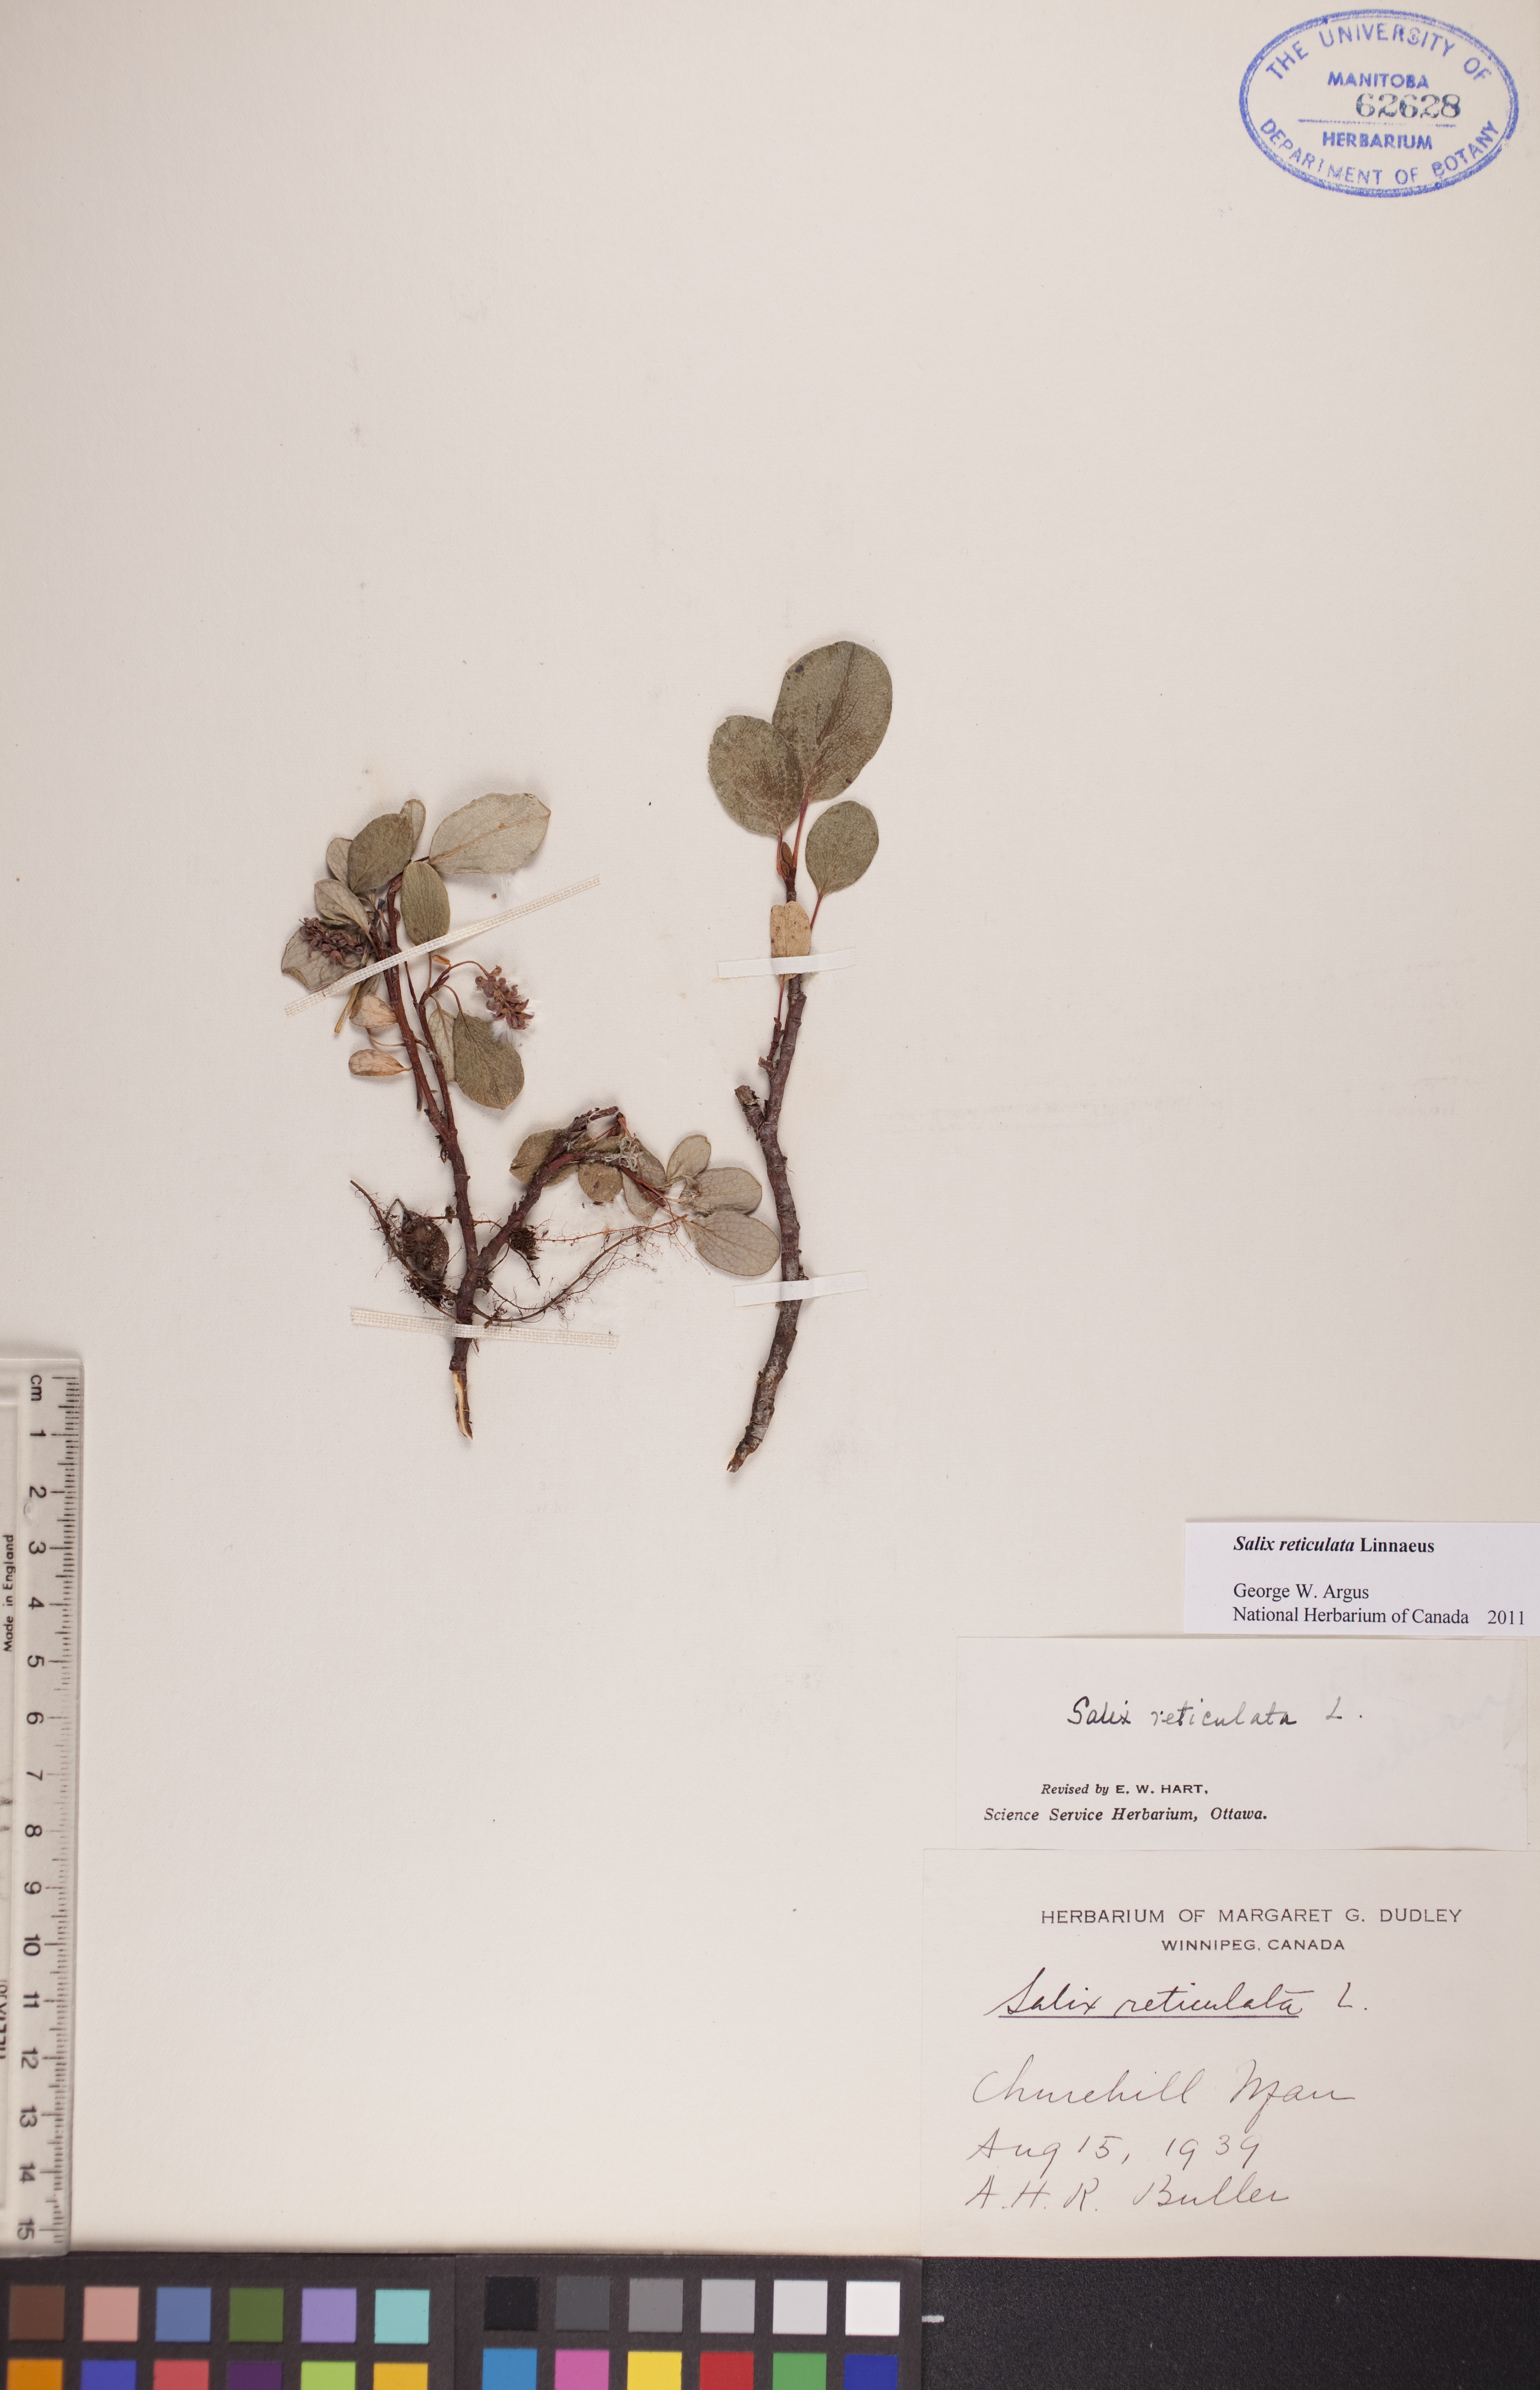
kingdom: Plantae
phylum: Tracheophyta
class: Magnoliopsida
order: Malpighiales
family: Salicaceae
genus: Salix
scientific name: Salix reticulata
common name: Net-leaved willow
